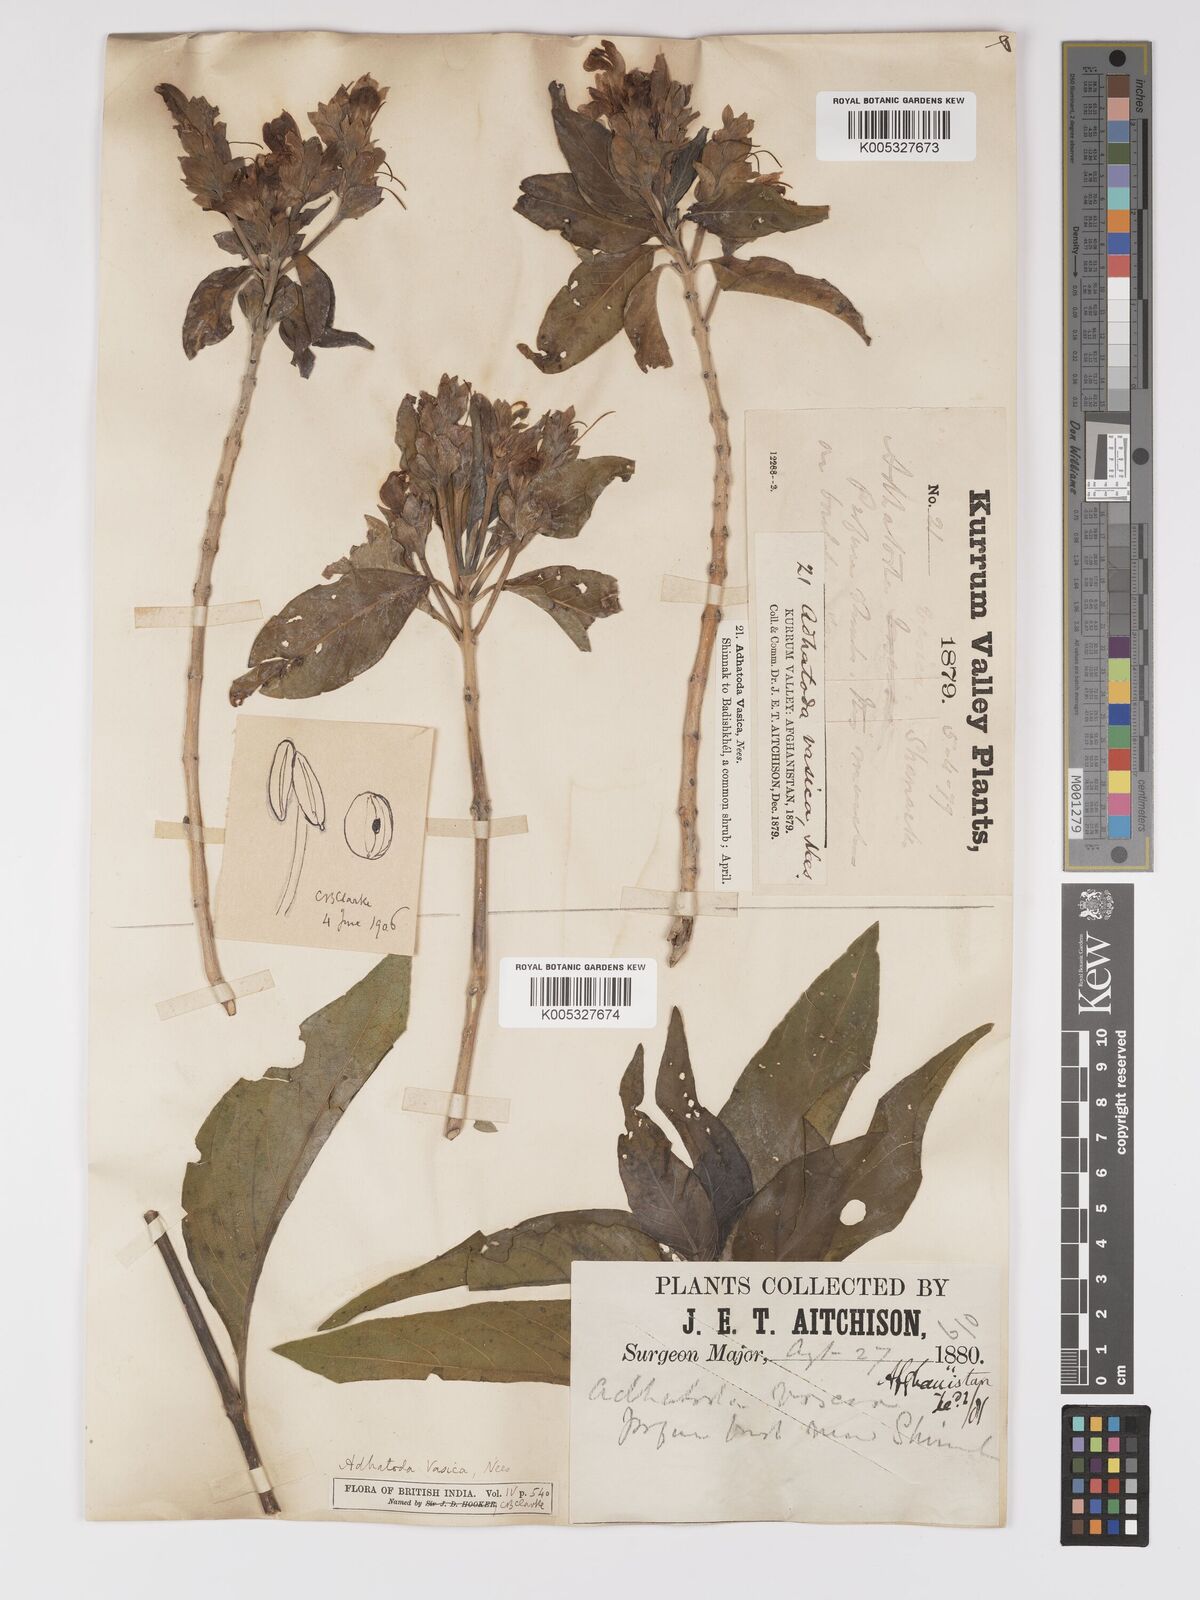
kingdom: Plantae
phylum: Tracheophyta
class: Magnoliopsida
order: Lamiales
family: Acanthaceae
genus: Ecbolium
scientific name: Ecbolium ligustrinum
